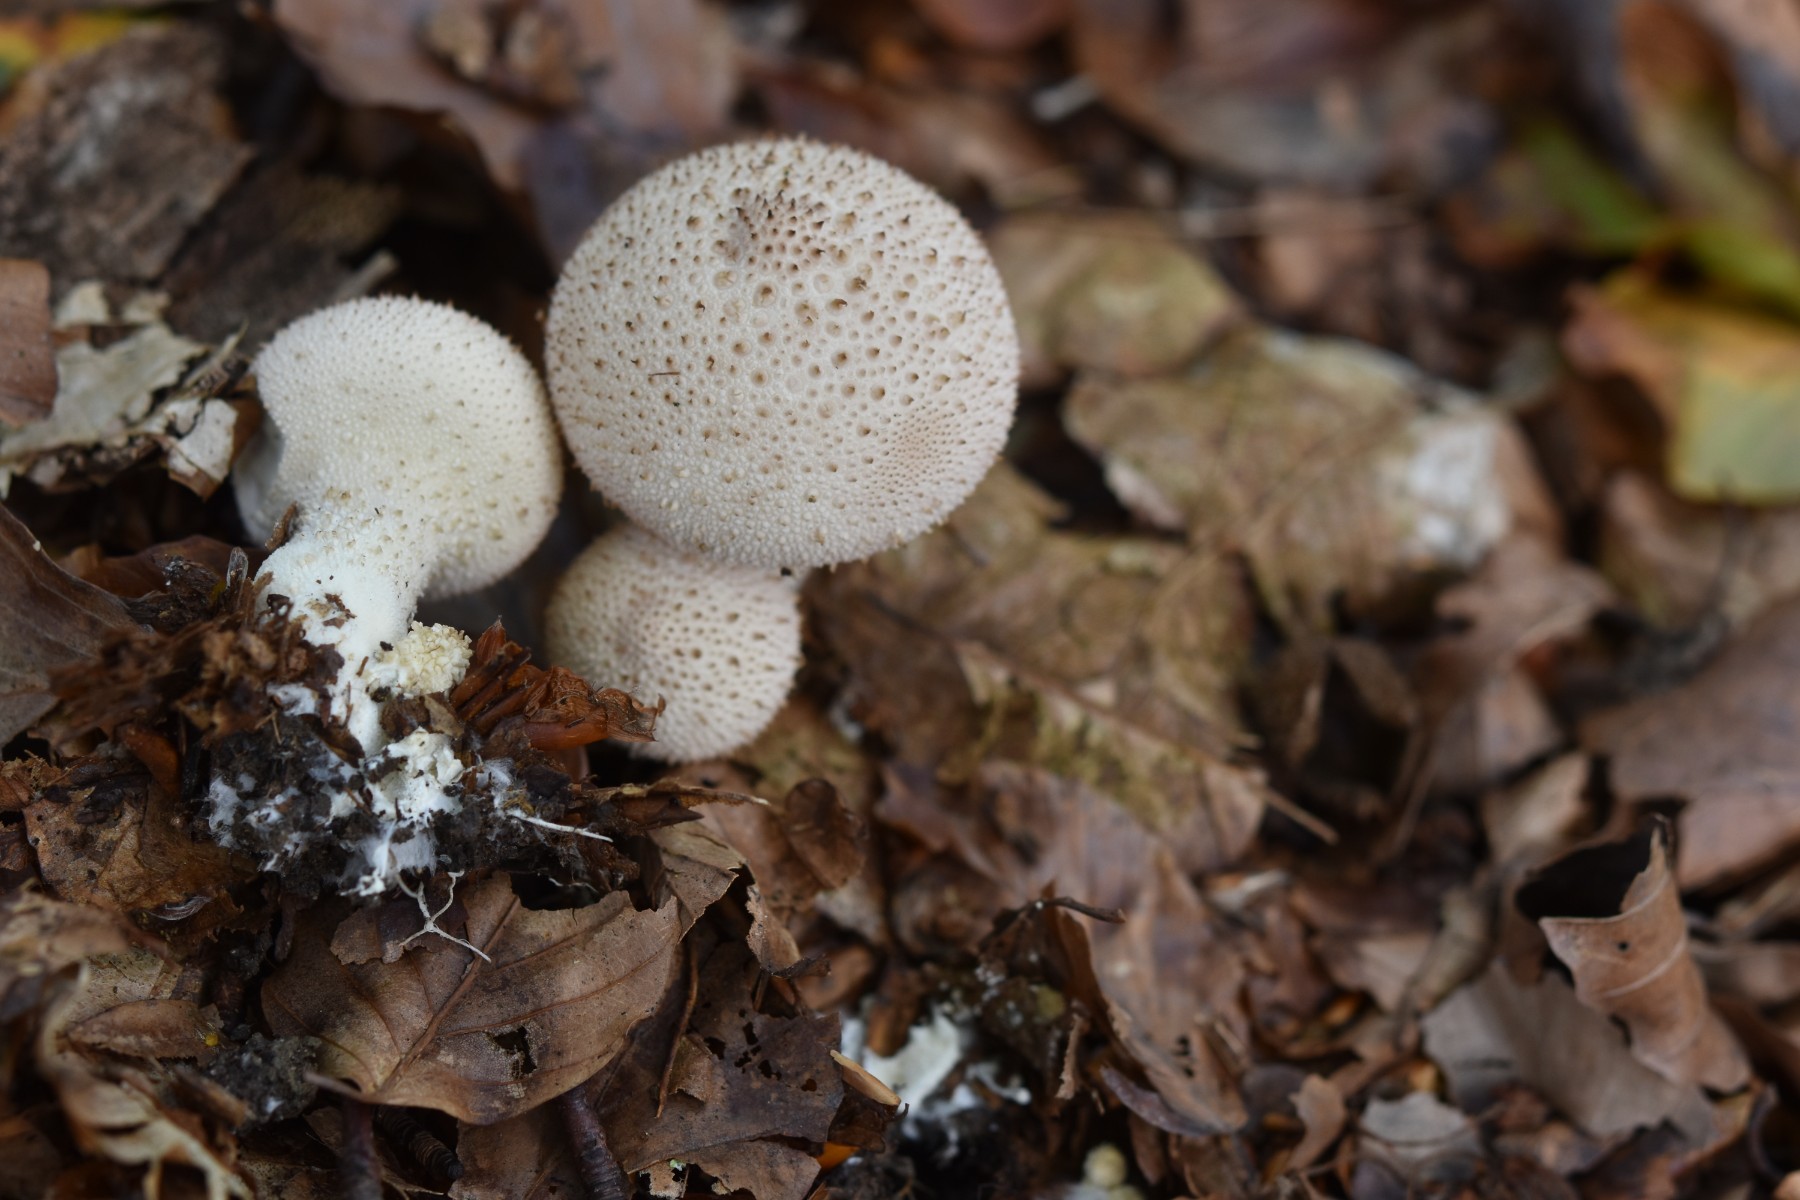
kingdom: Fungi
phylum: Basidiomycota
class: Agaricomycetes
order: Agaricales
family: Lycoperdaceae
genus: Lycoperdon
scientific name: Lycoperdon perlatum
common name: krystal-støvbold
